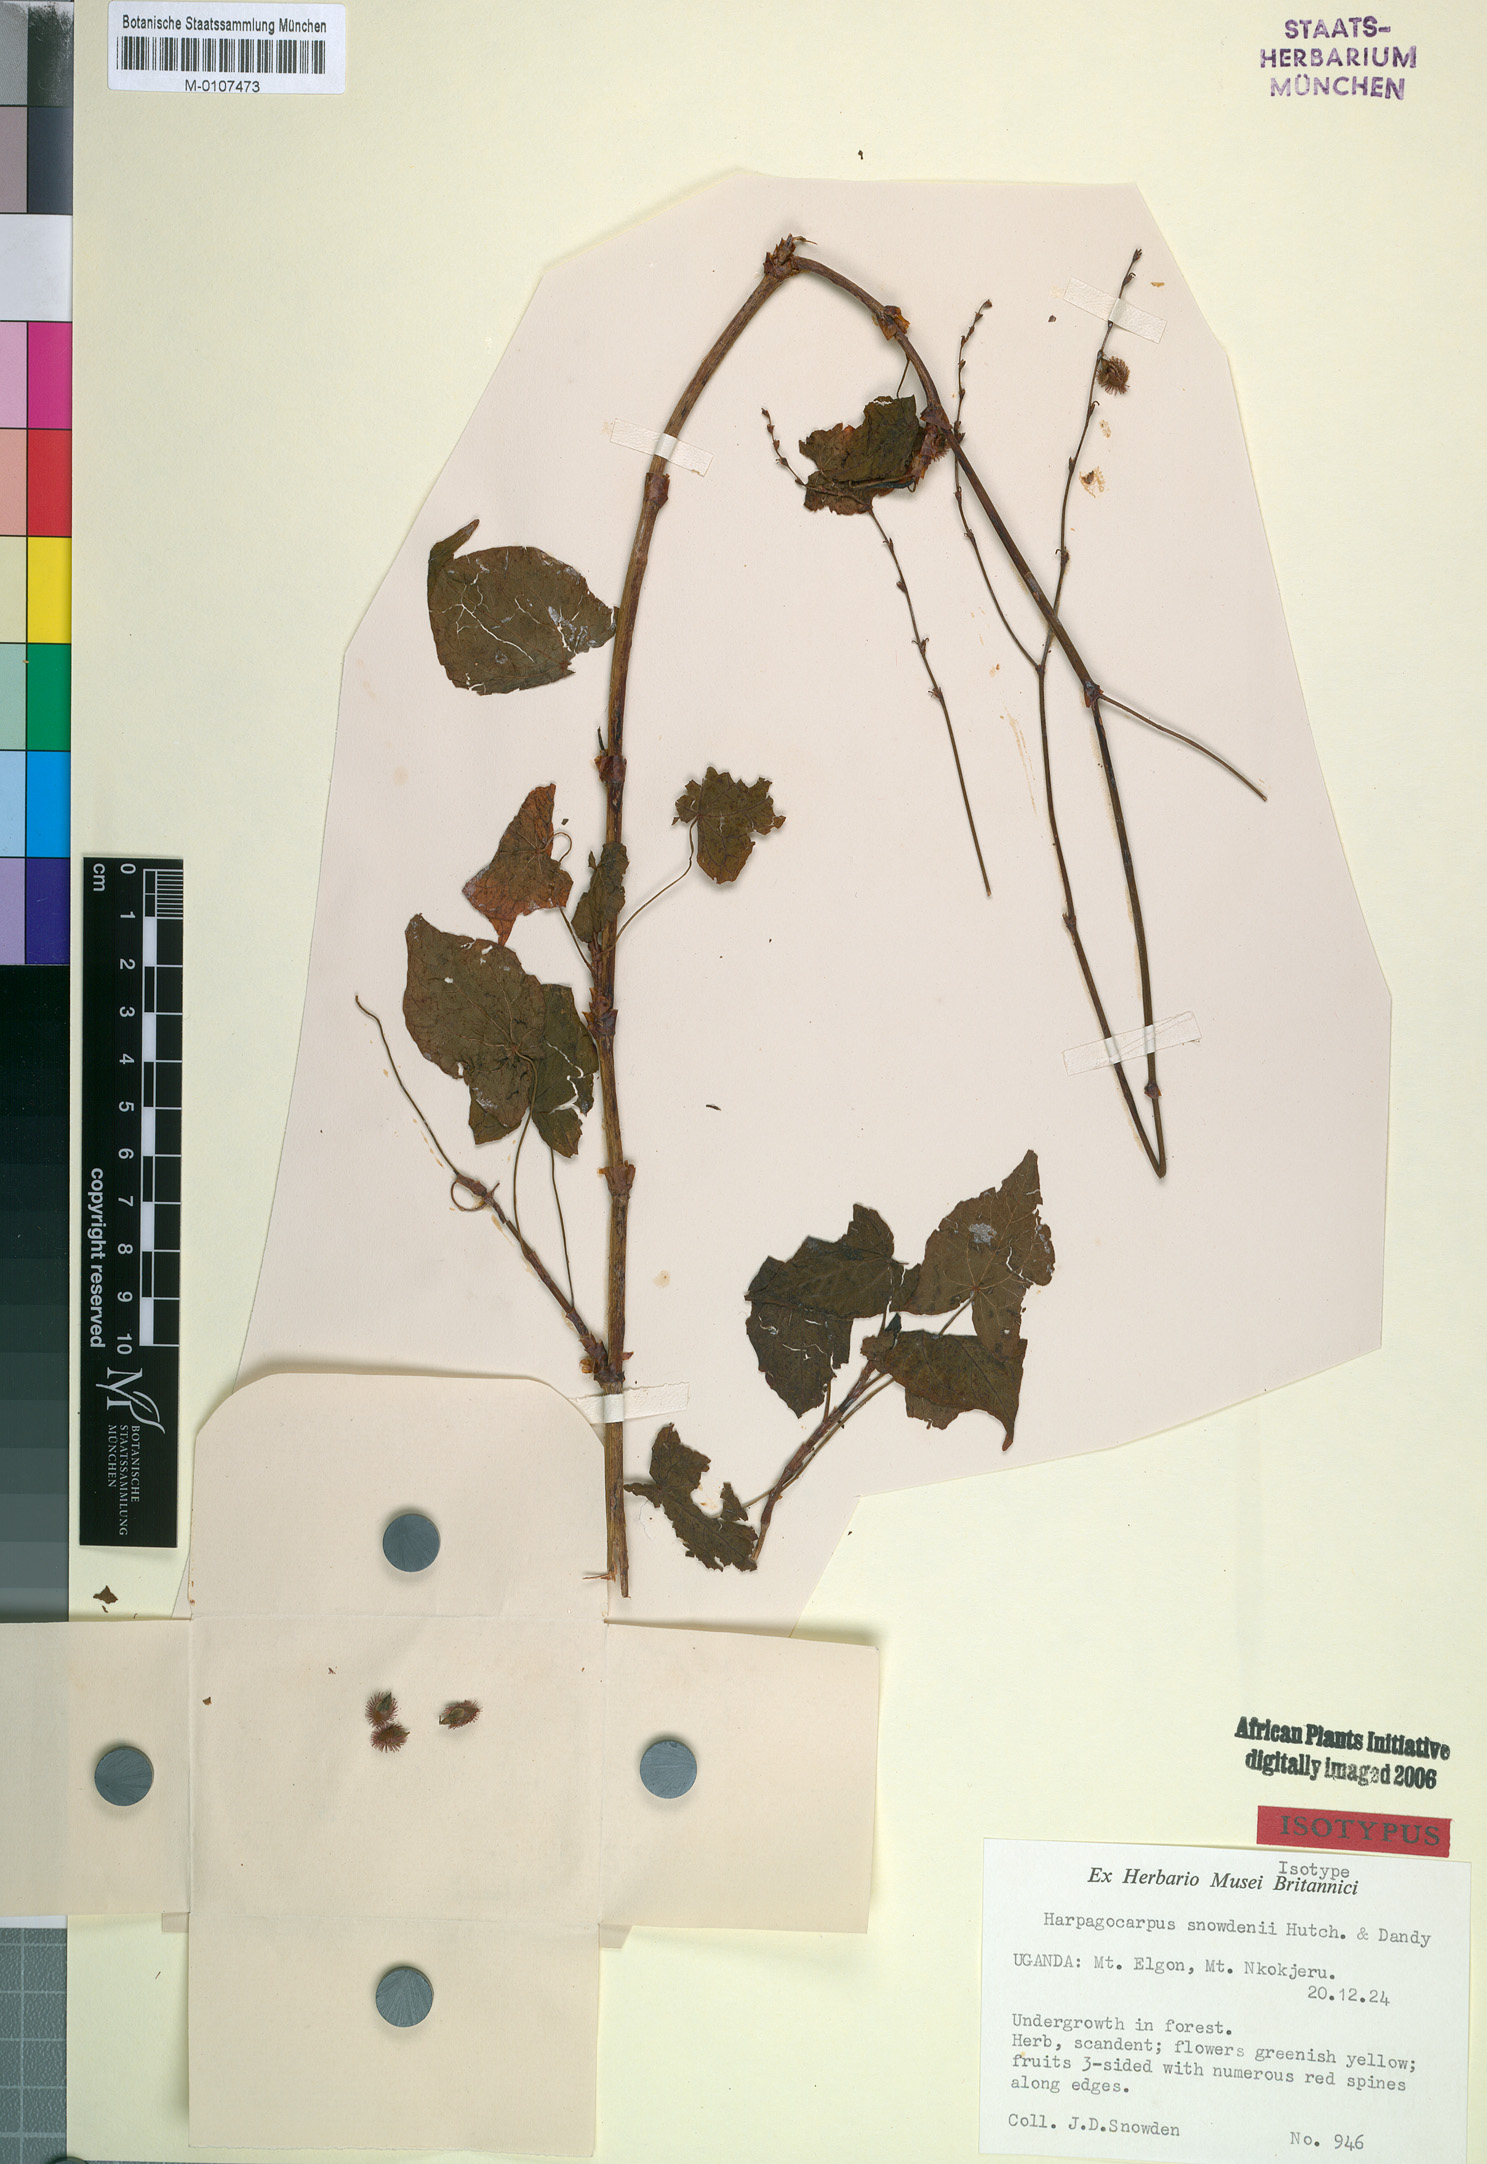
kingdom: Plantae
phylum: Tracheophyta
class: Magnoliopsida
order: Caryophyllales
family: Polygonaceae
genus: Harpagocarpus
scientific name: Harpagocarpus snowdenii
